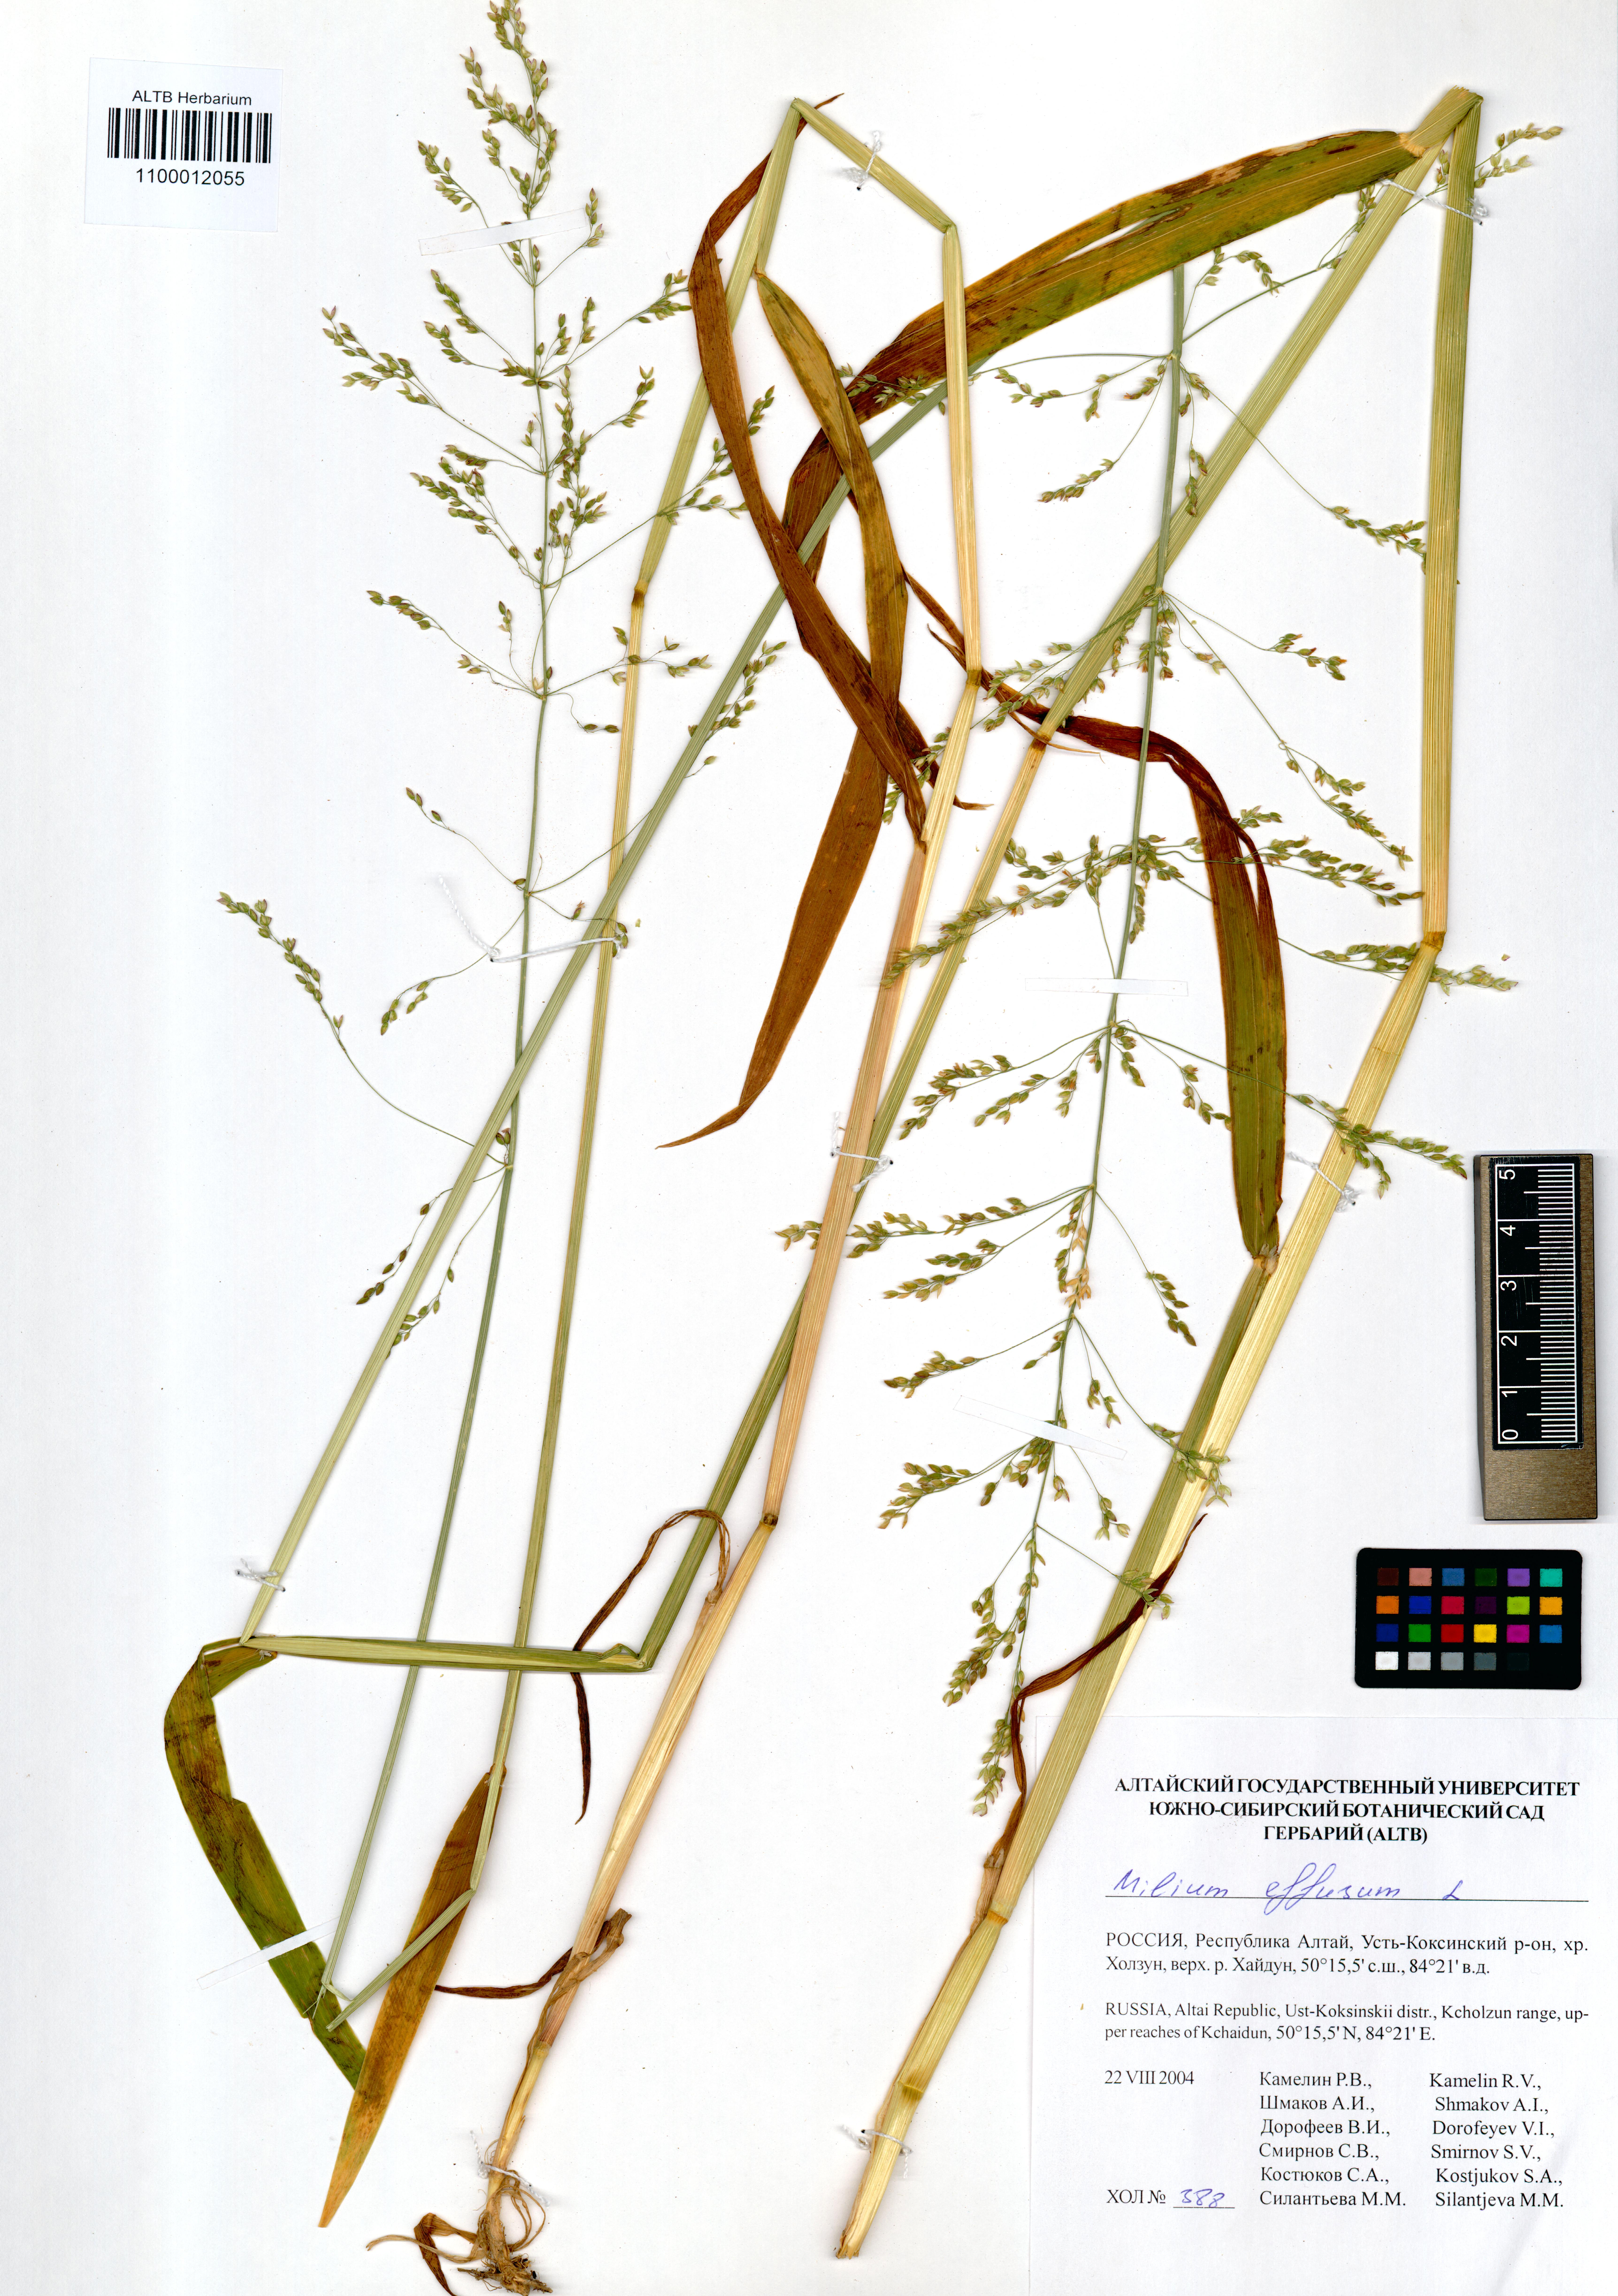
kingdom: Plantae
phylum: Tracheophyta
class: Liliopsida
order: Poales
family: Poaceae
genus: Milium
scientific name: Milium effusum
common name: Wood millet
